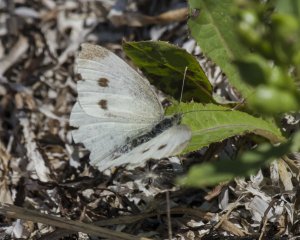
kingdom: Animalia
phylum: Arthropoda
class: Insecta
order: Lepidoptera
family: Pieridae
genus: Pieris
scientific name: Pieris rapae
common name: Cabbage White
